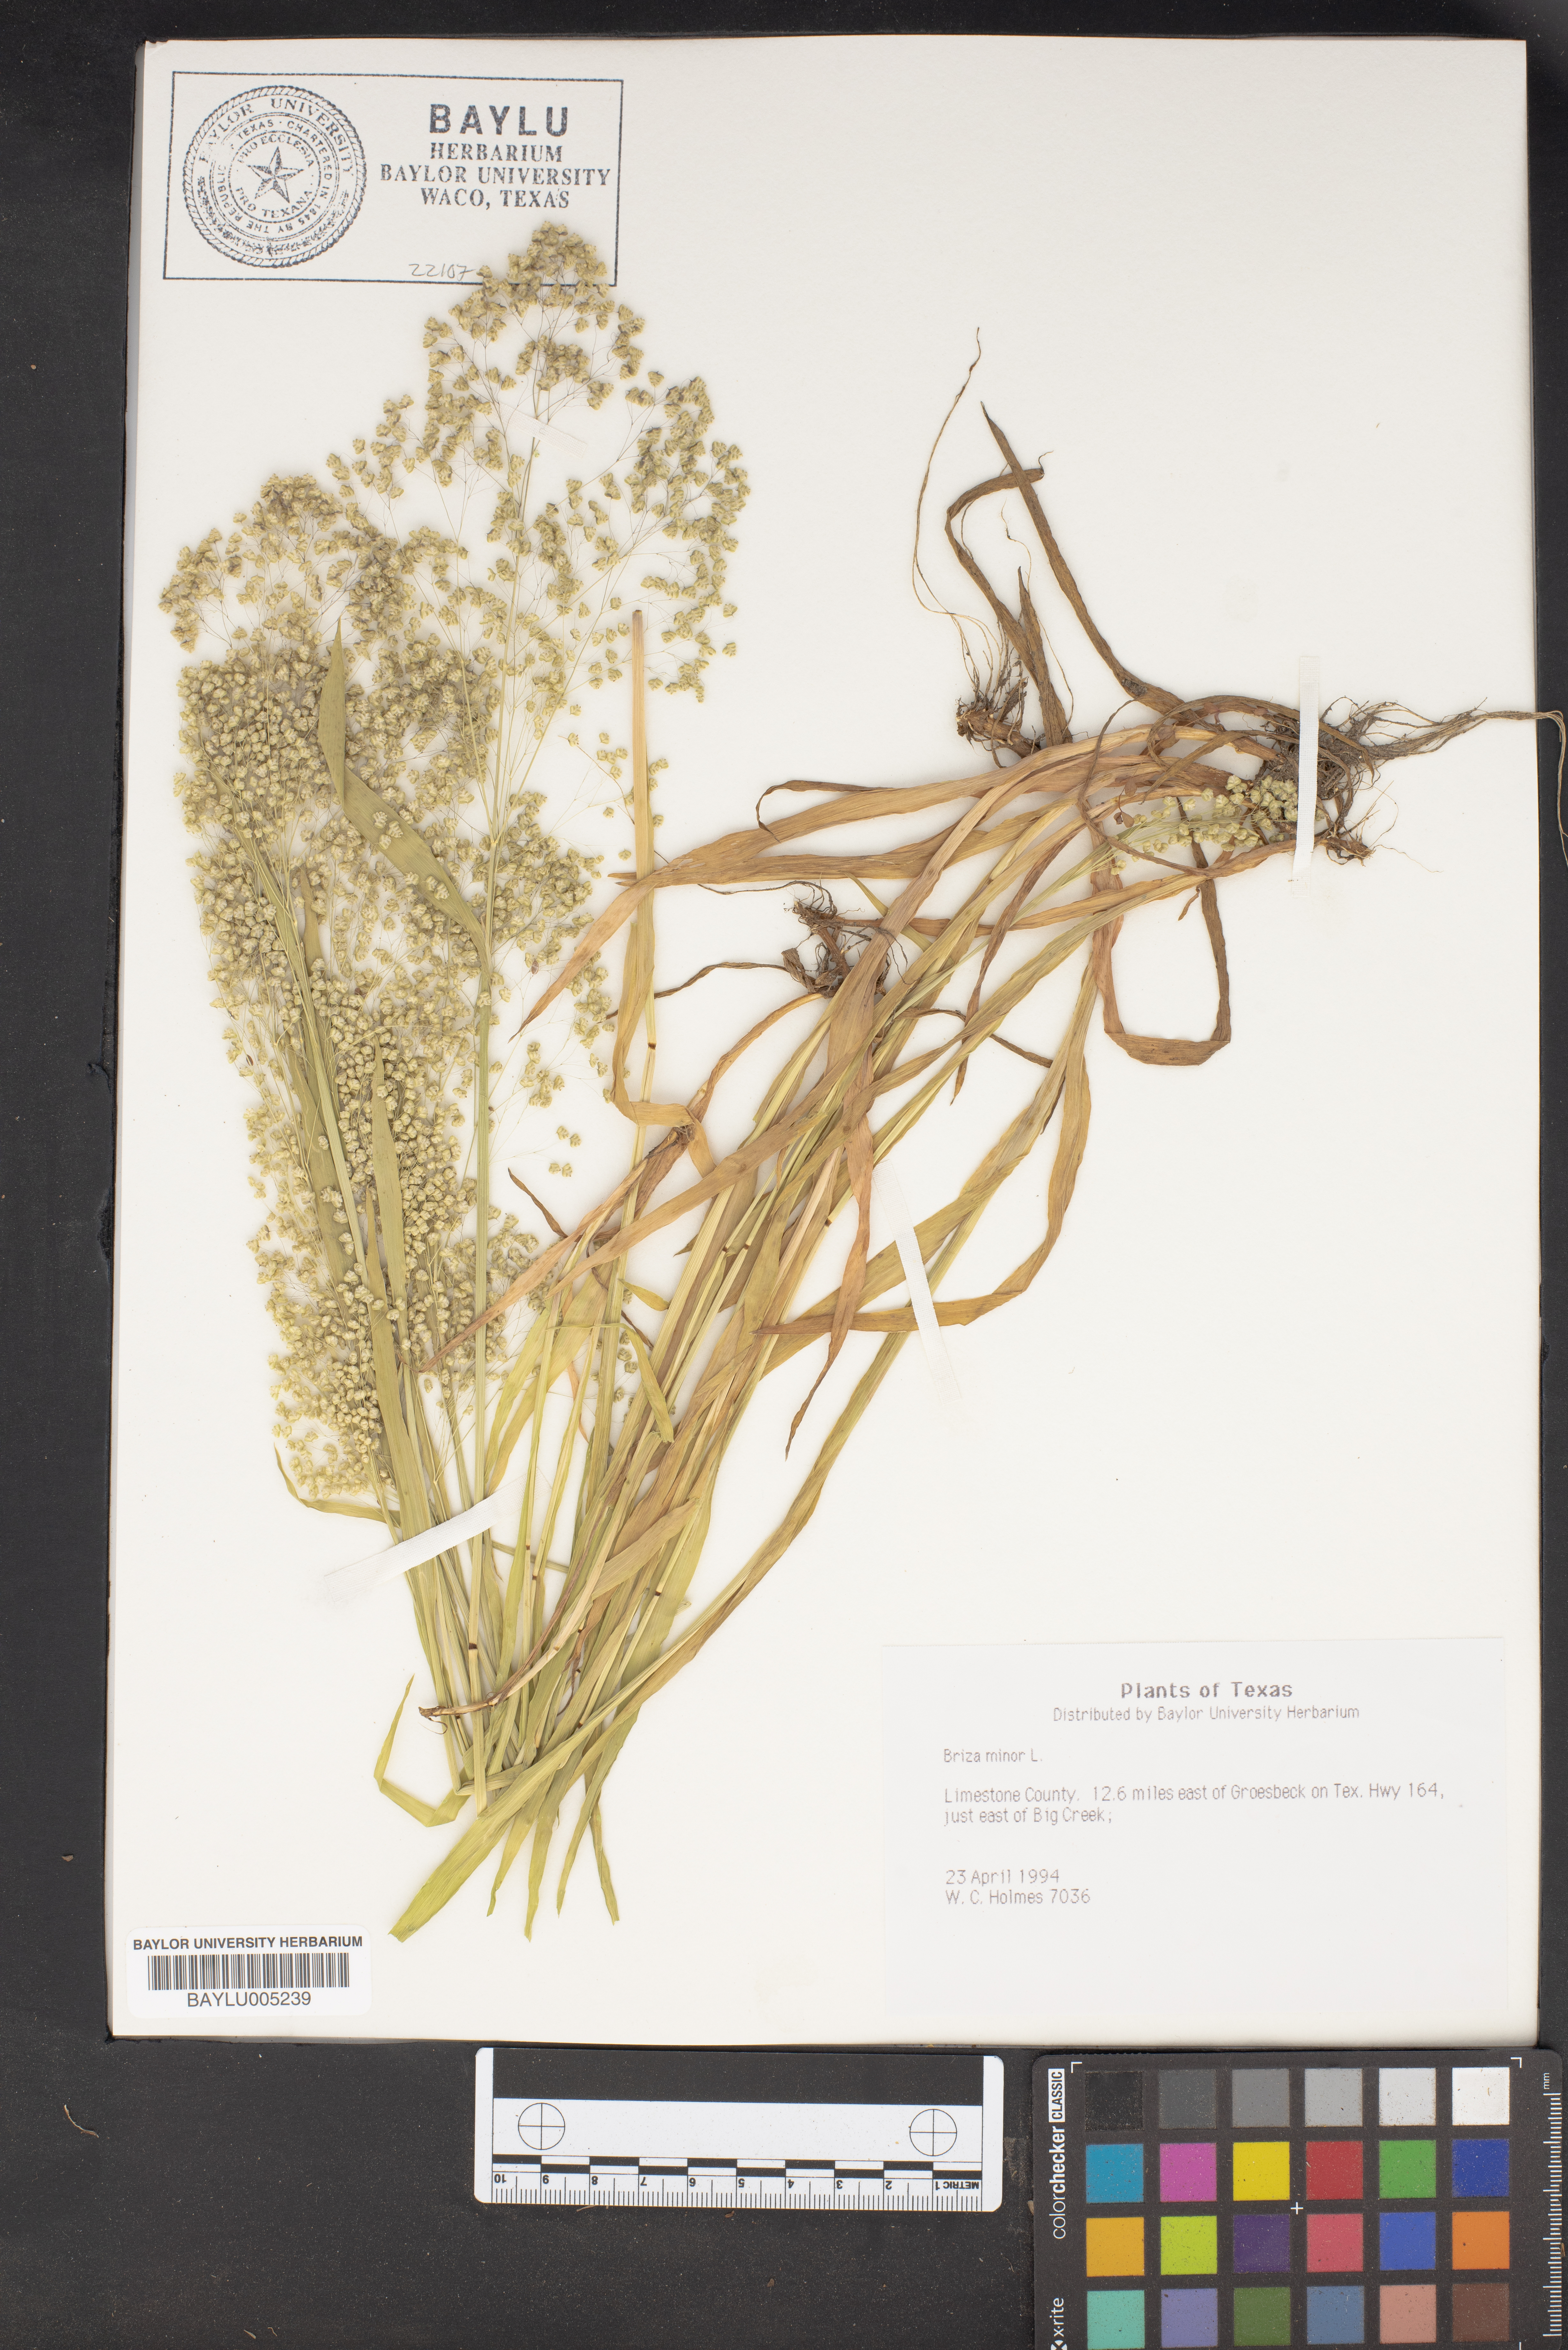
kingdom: Plantae
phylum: Tracheophyta
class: Liliopsida
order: Poales
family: Poaceae
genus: Briza
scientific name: Briza minor
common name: Lesser quaking-grass
